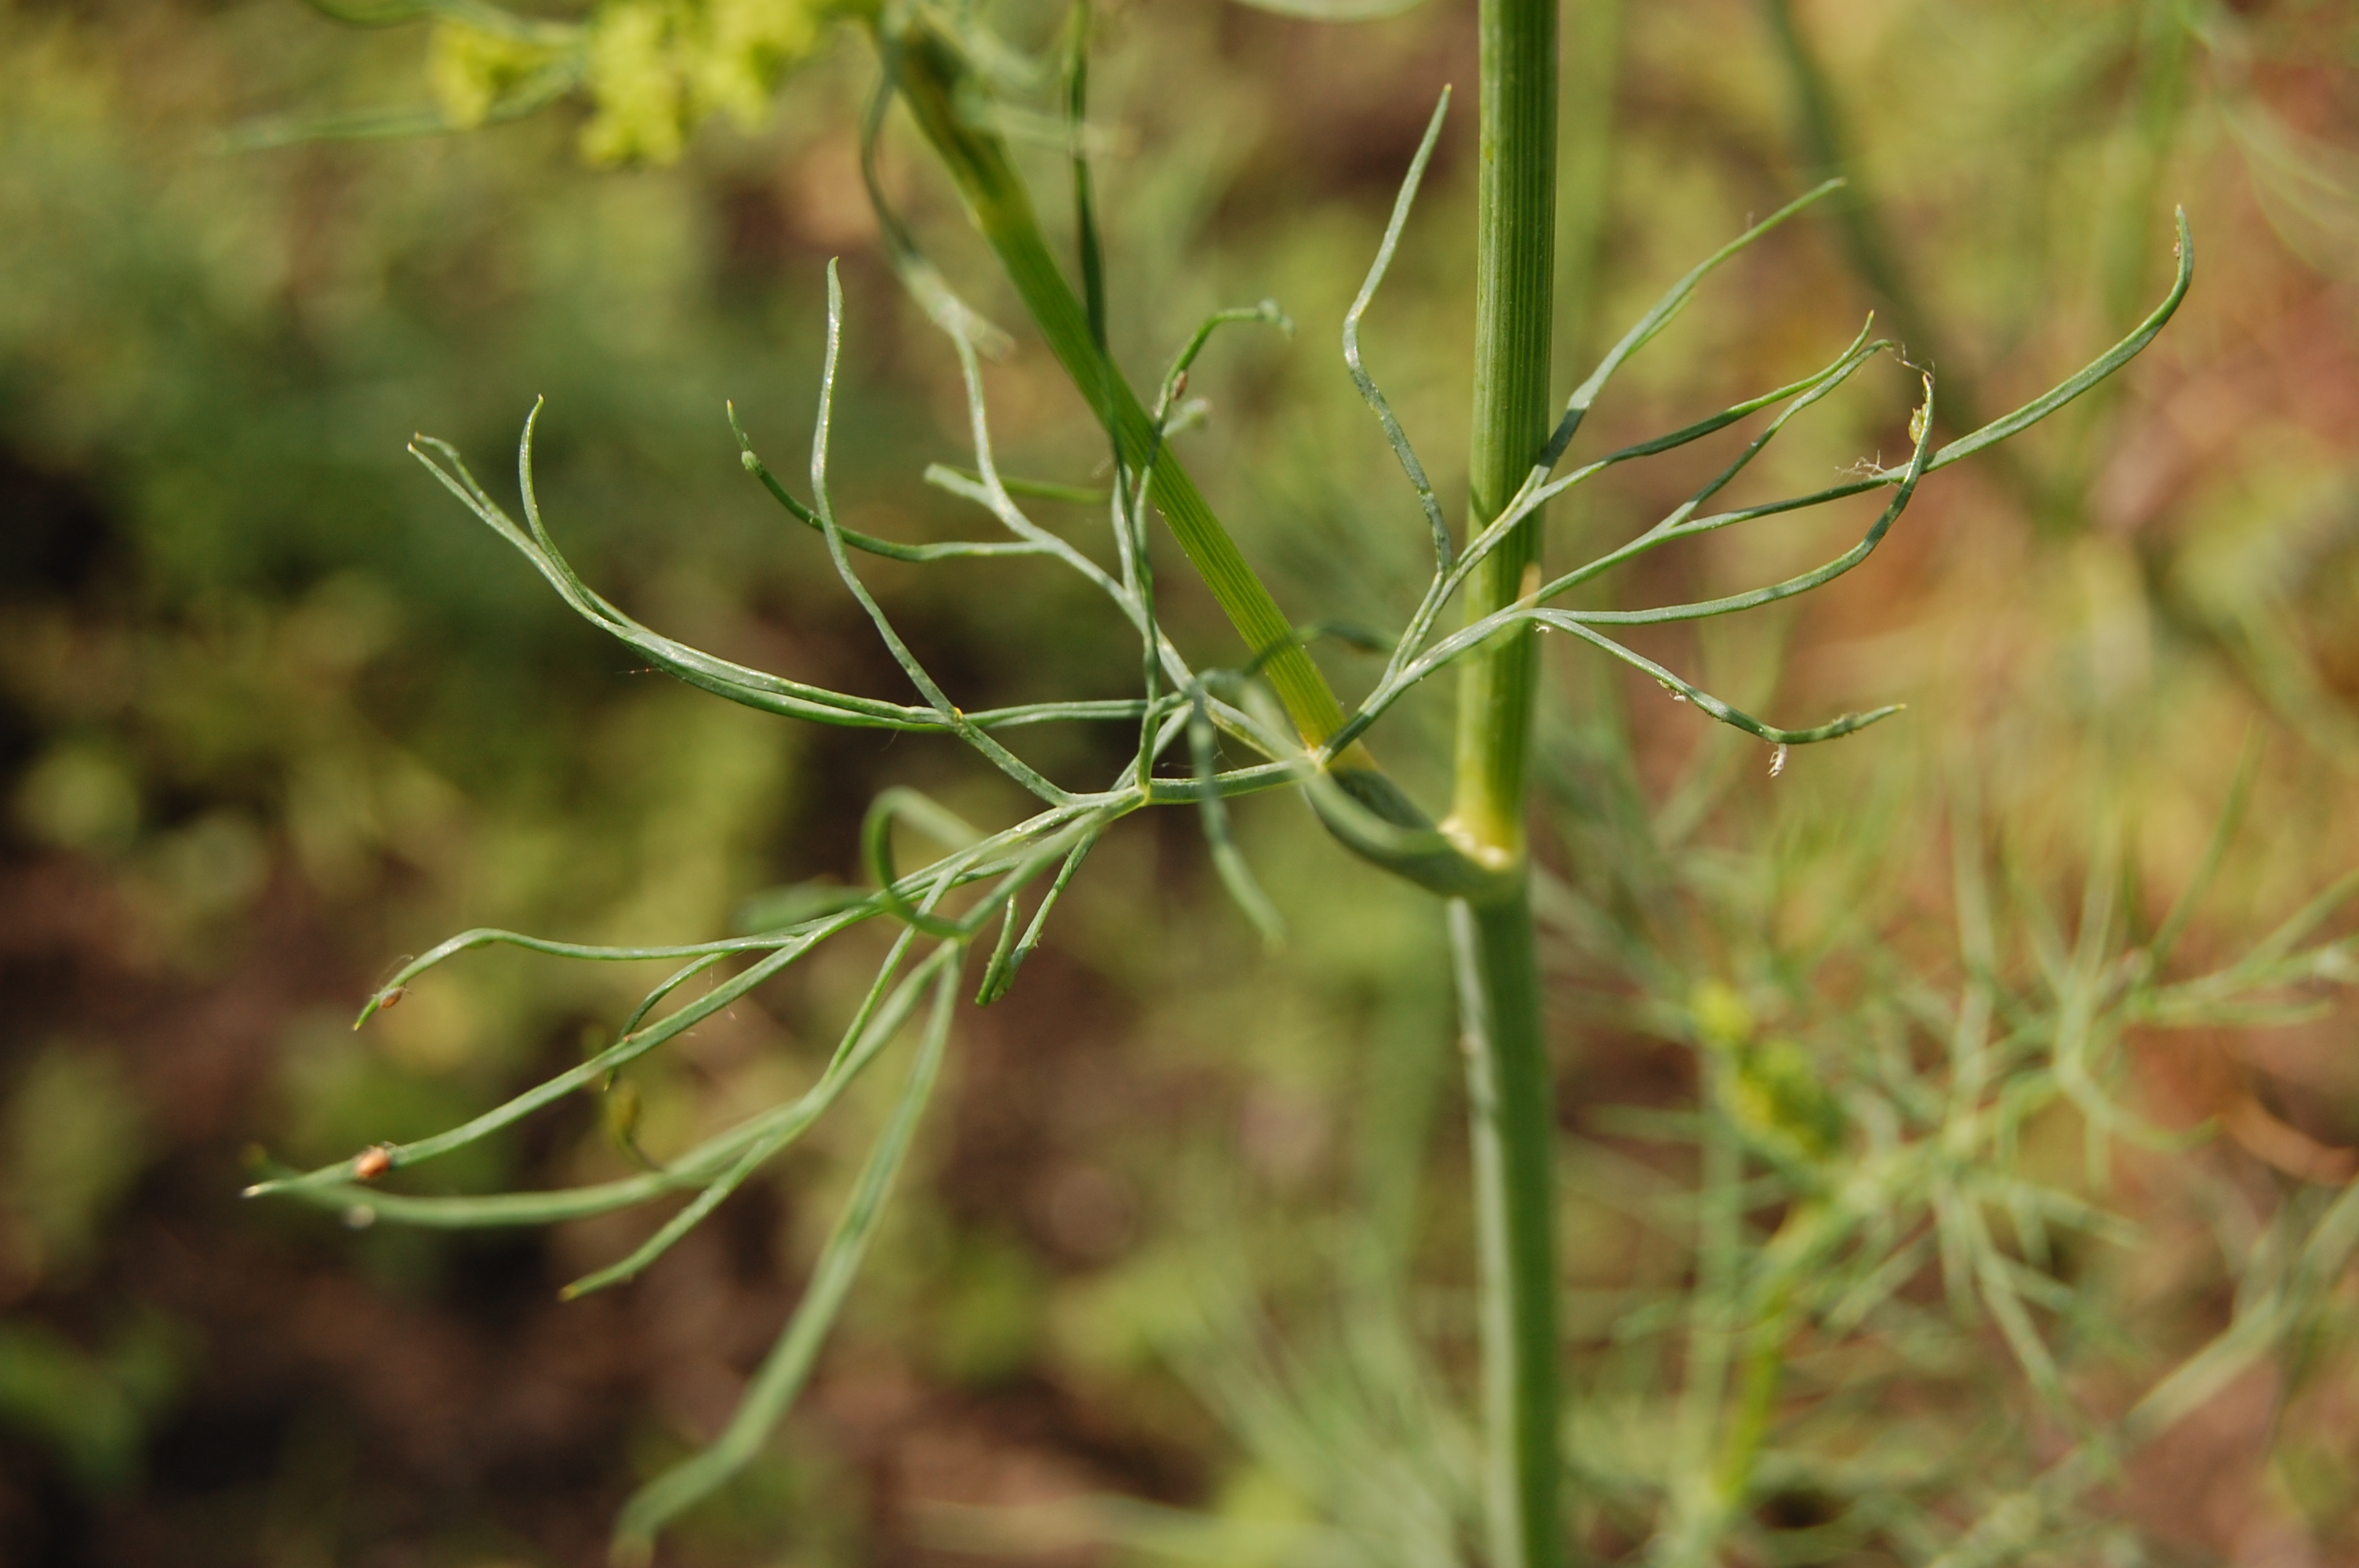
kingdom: Plantae
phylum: Tracheophyta
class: Magnoliopsida
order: Apiales
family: Apiaceae
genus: Anethum
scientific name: Anethum graveolens
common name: Dill
